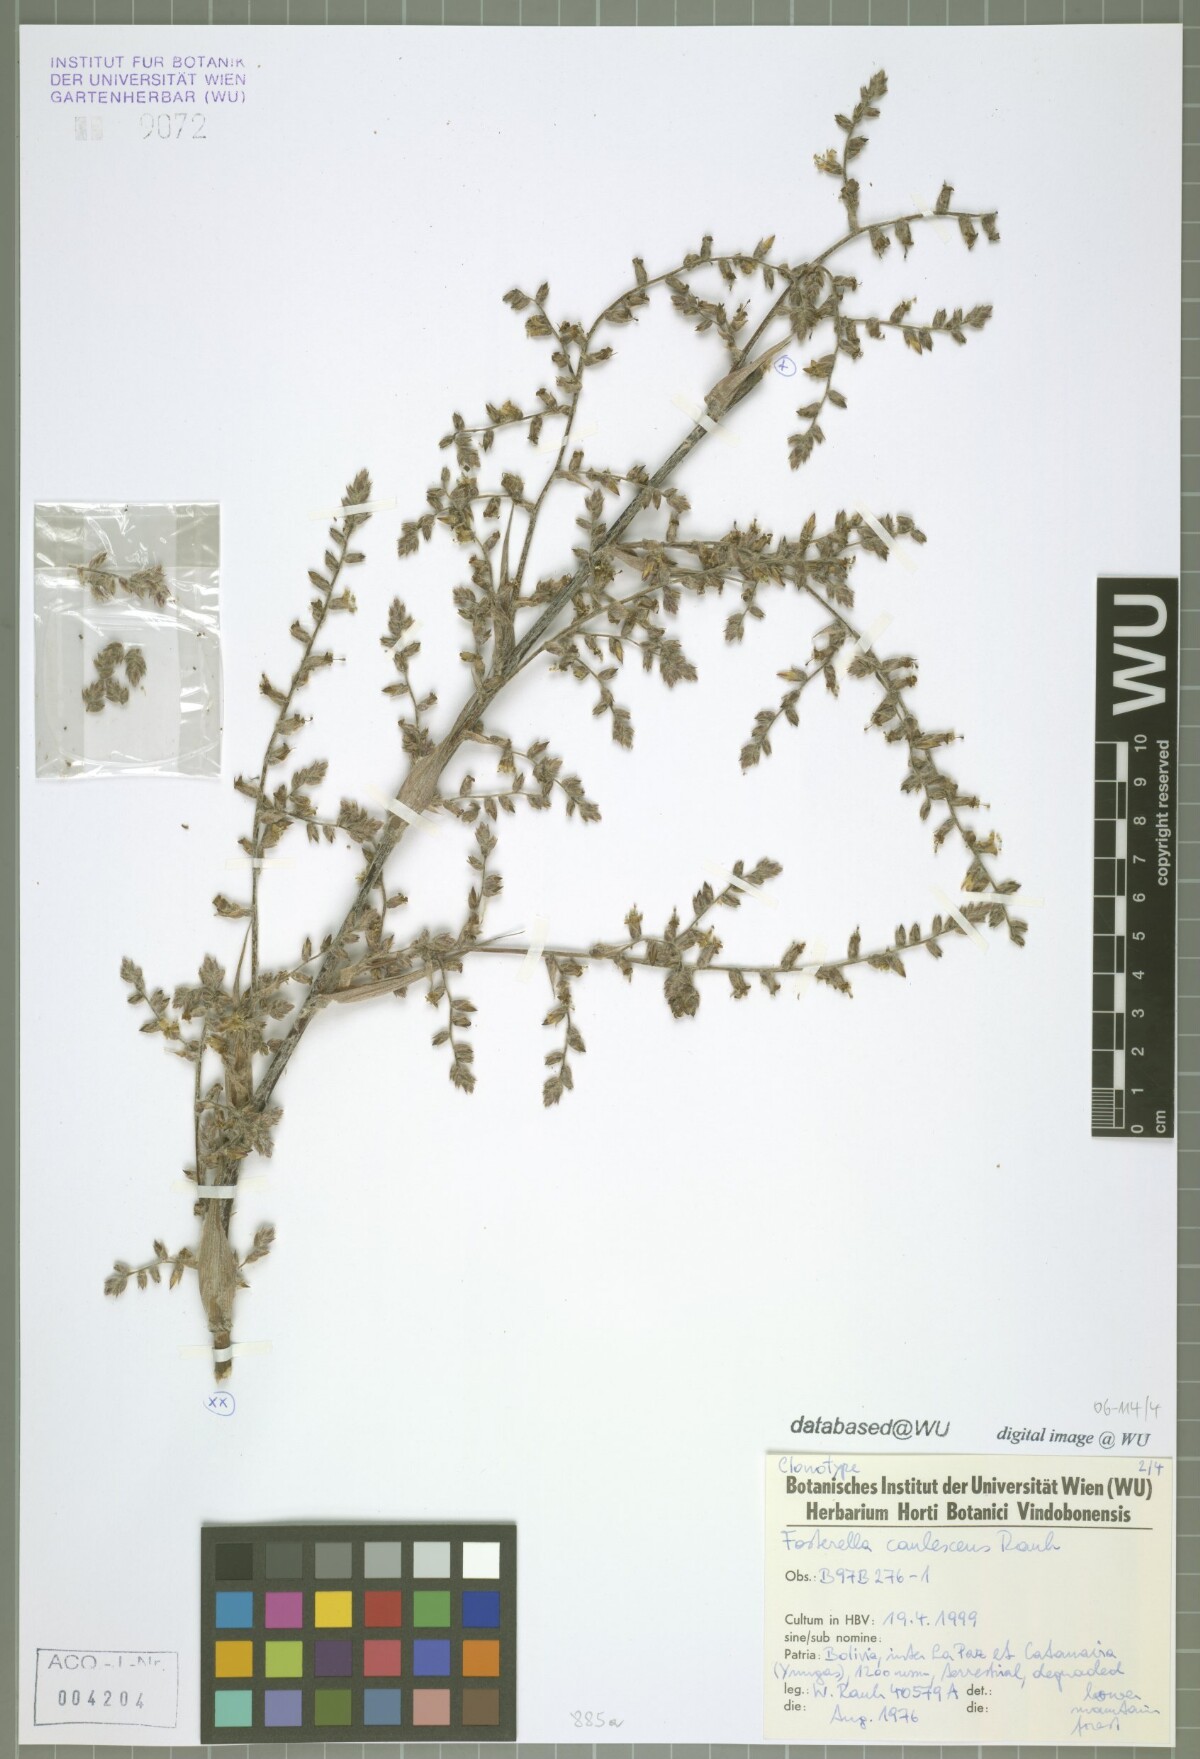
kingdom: Plantae
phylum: Tracheophyta
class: Liliopsida
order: Poales
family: Bromeliaceae
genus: Fosterella
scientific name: Fosterella caulescens
